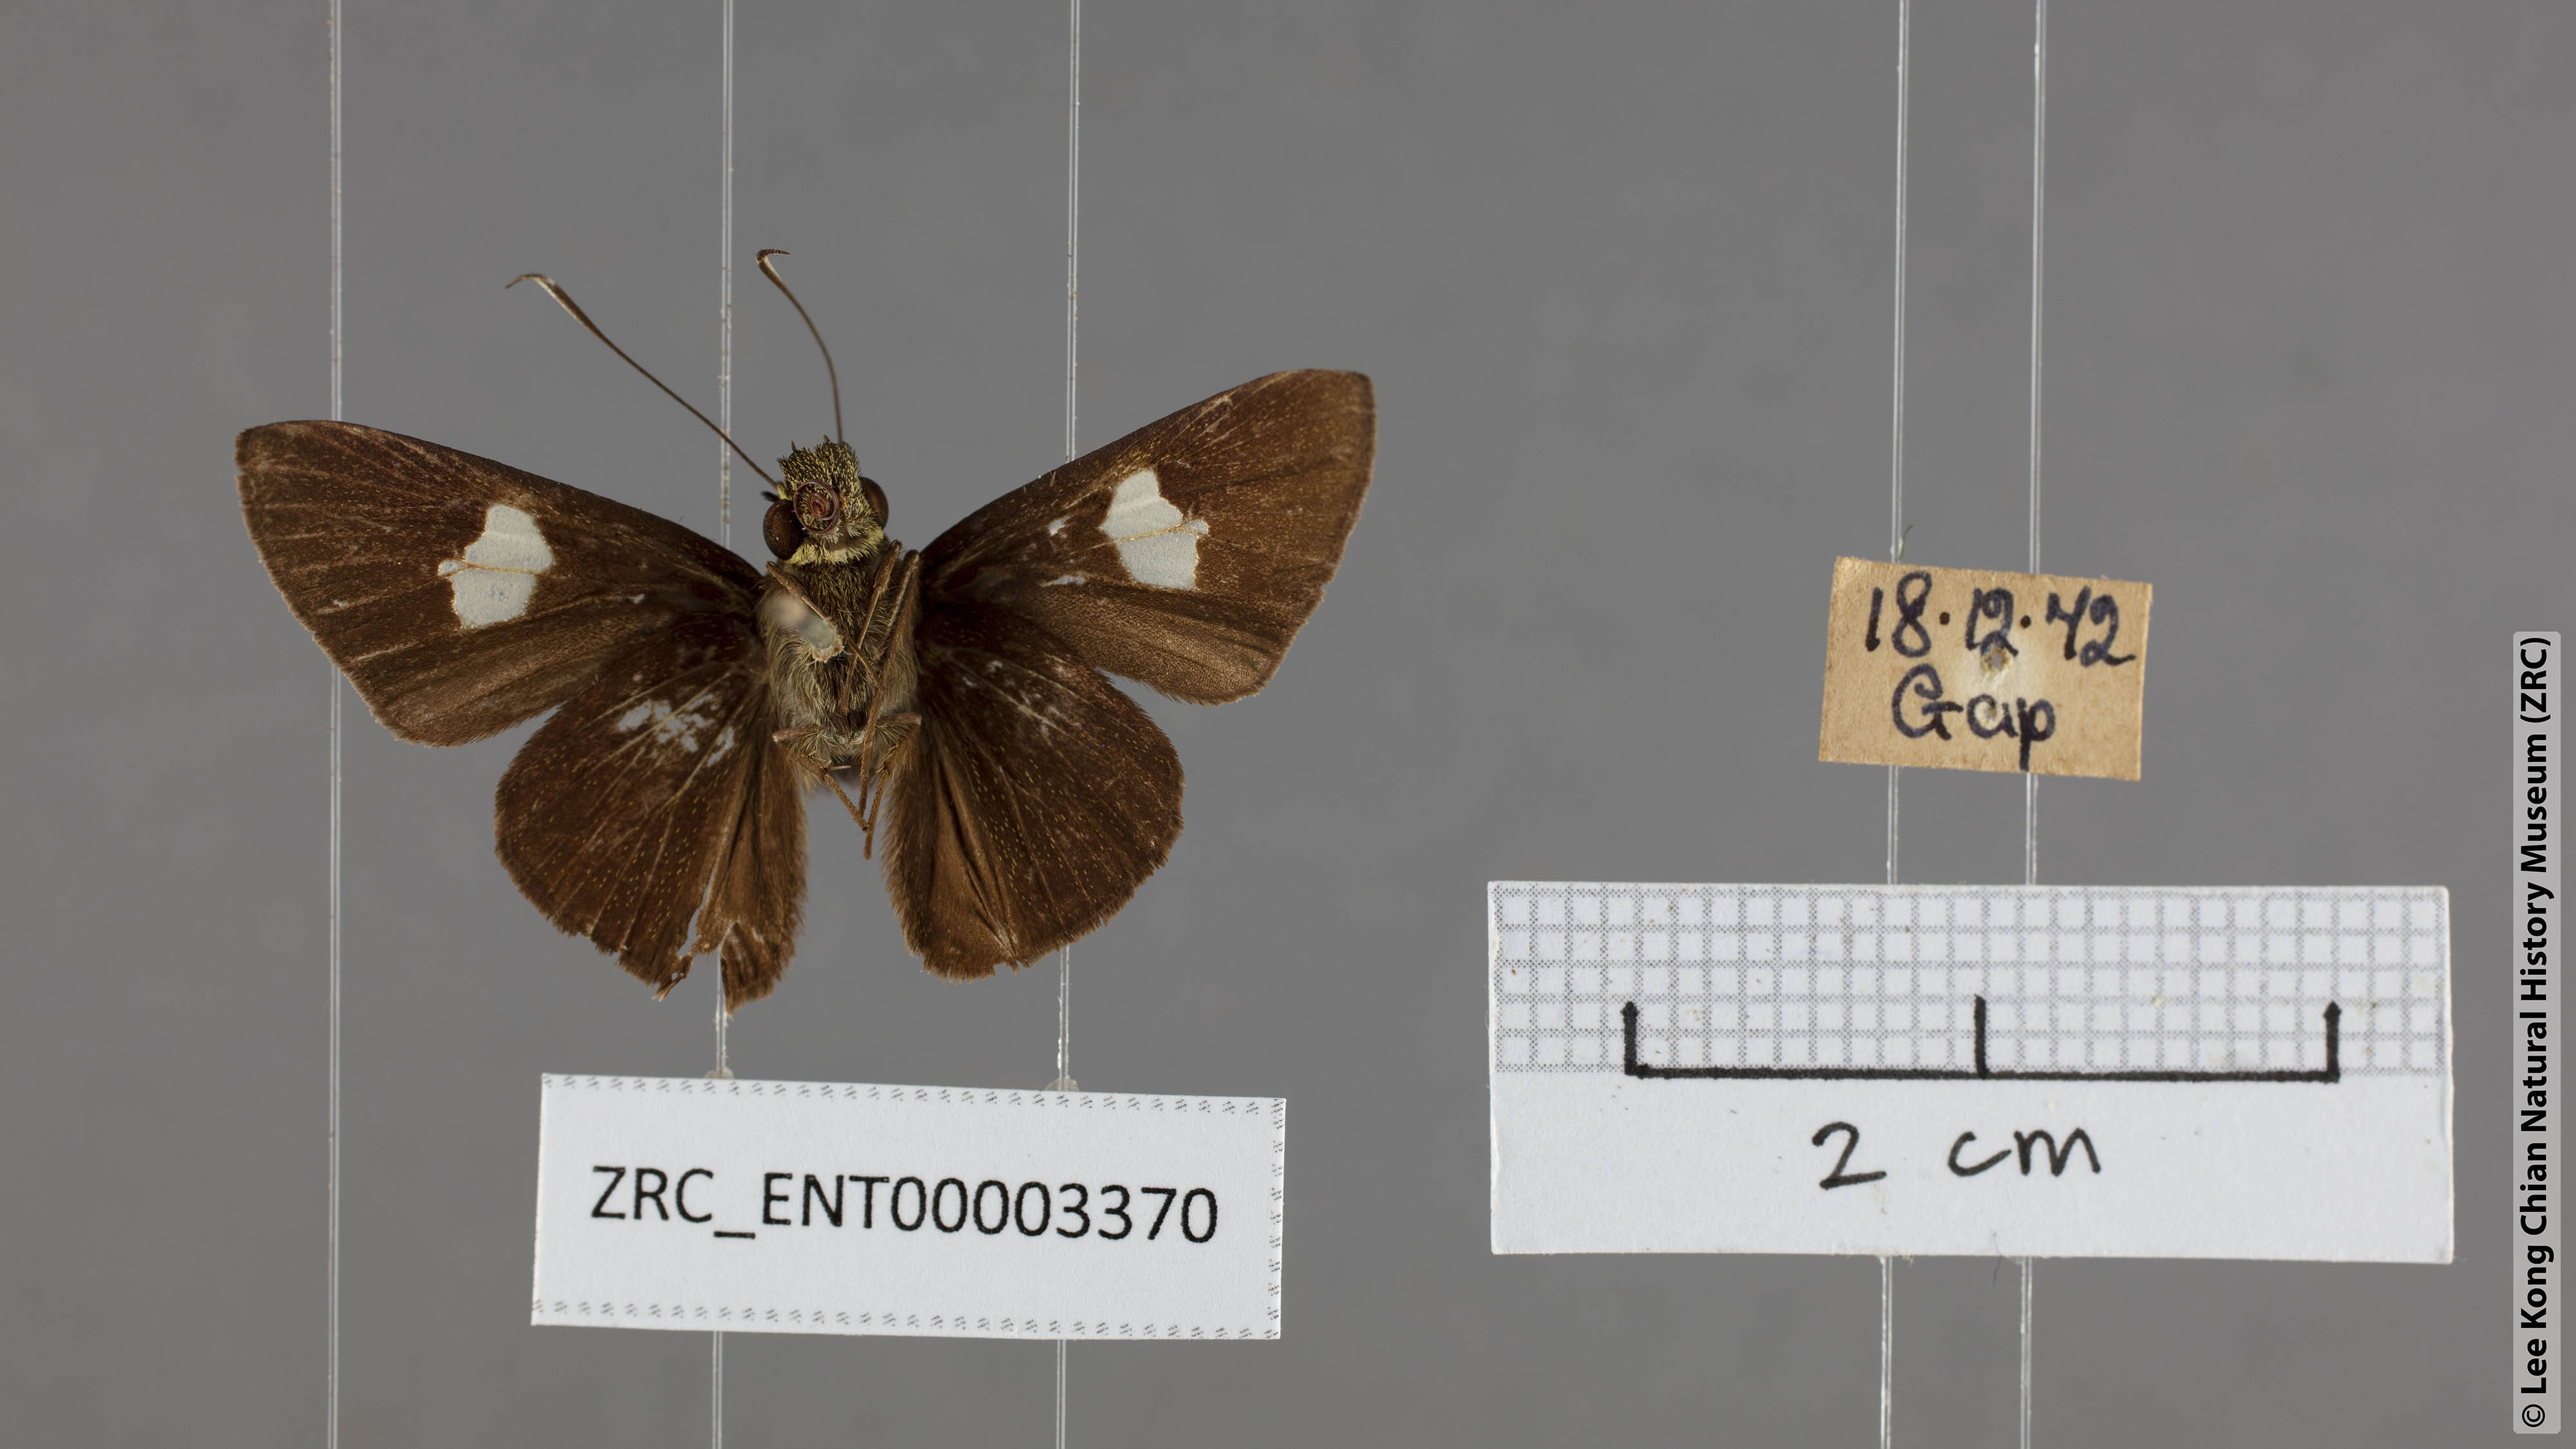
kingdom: Animalia
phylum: Arthropoda
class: Insecta
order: Lepidoptera
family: Hesperiidae
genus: Oerane
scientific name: Oerane microthyrus
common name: White club flitter
